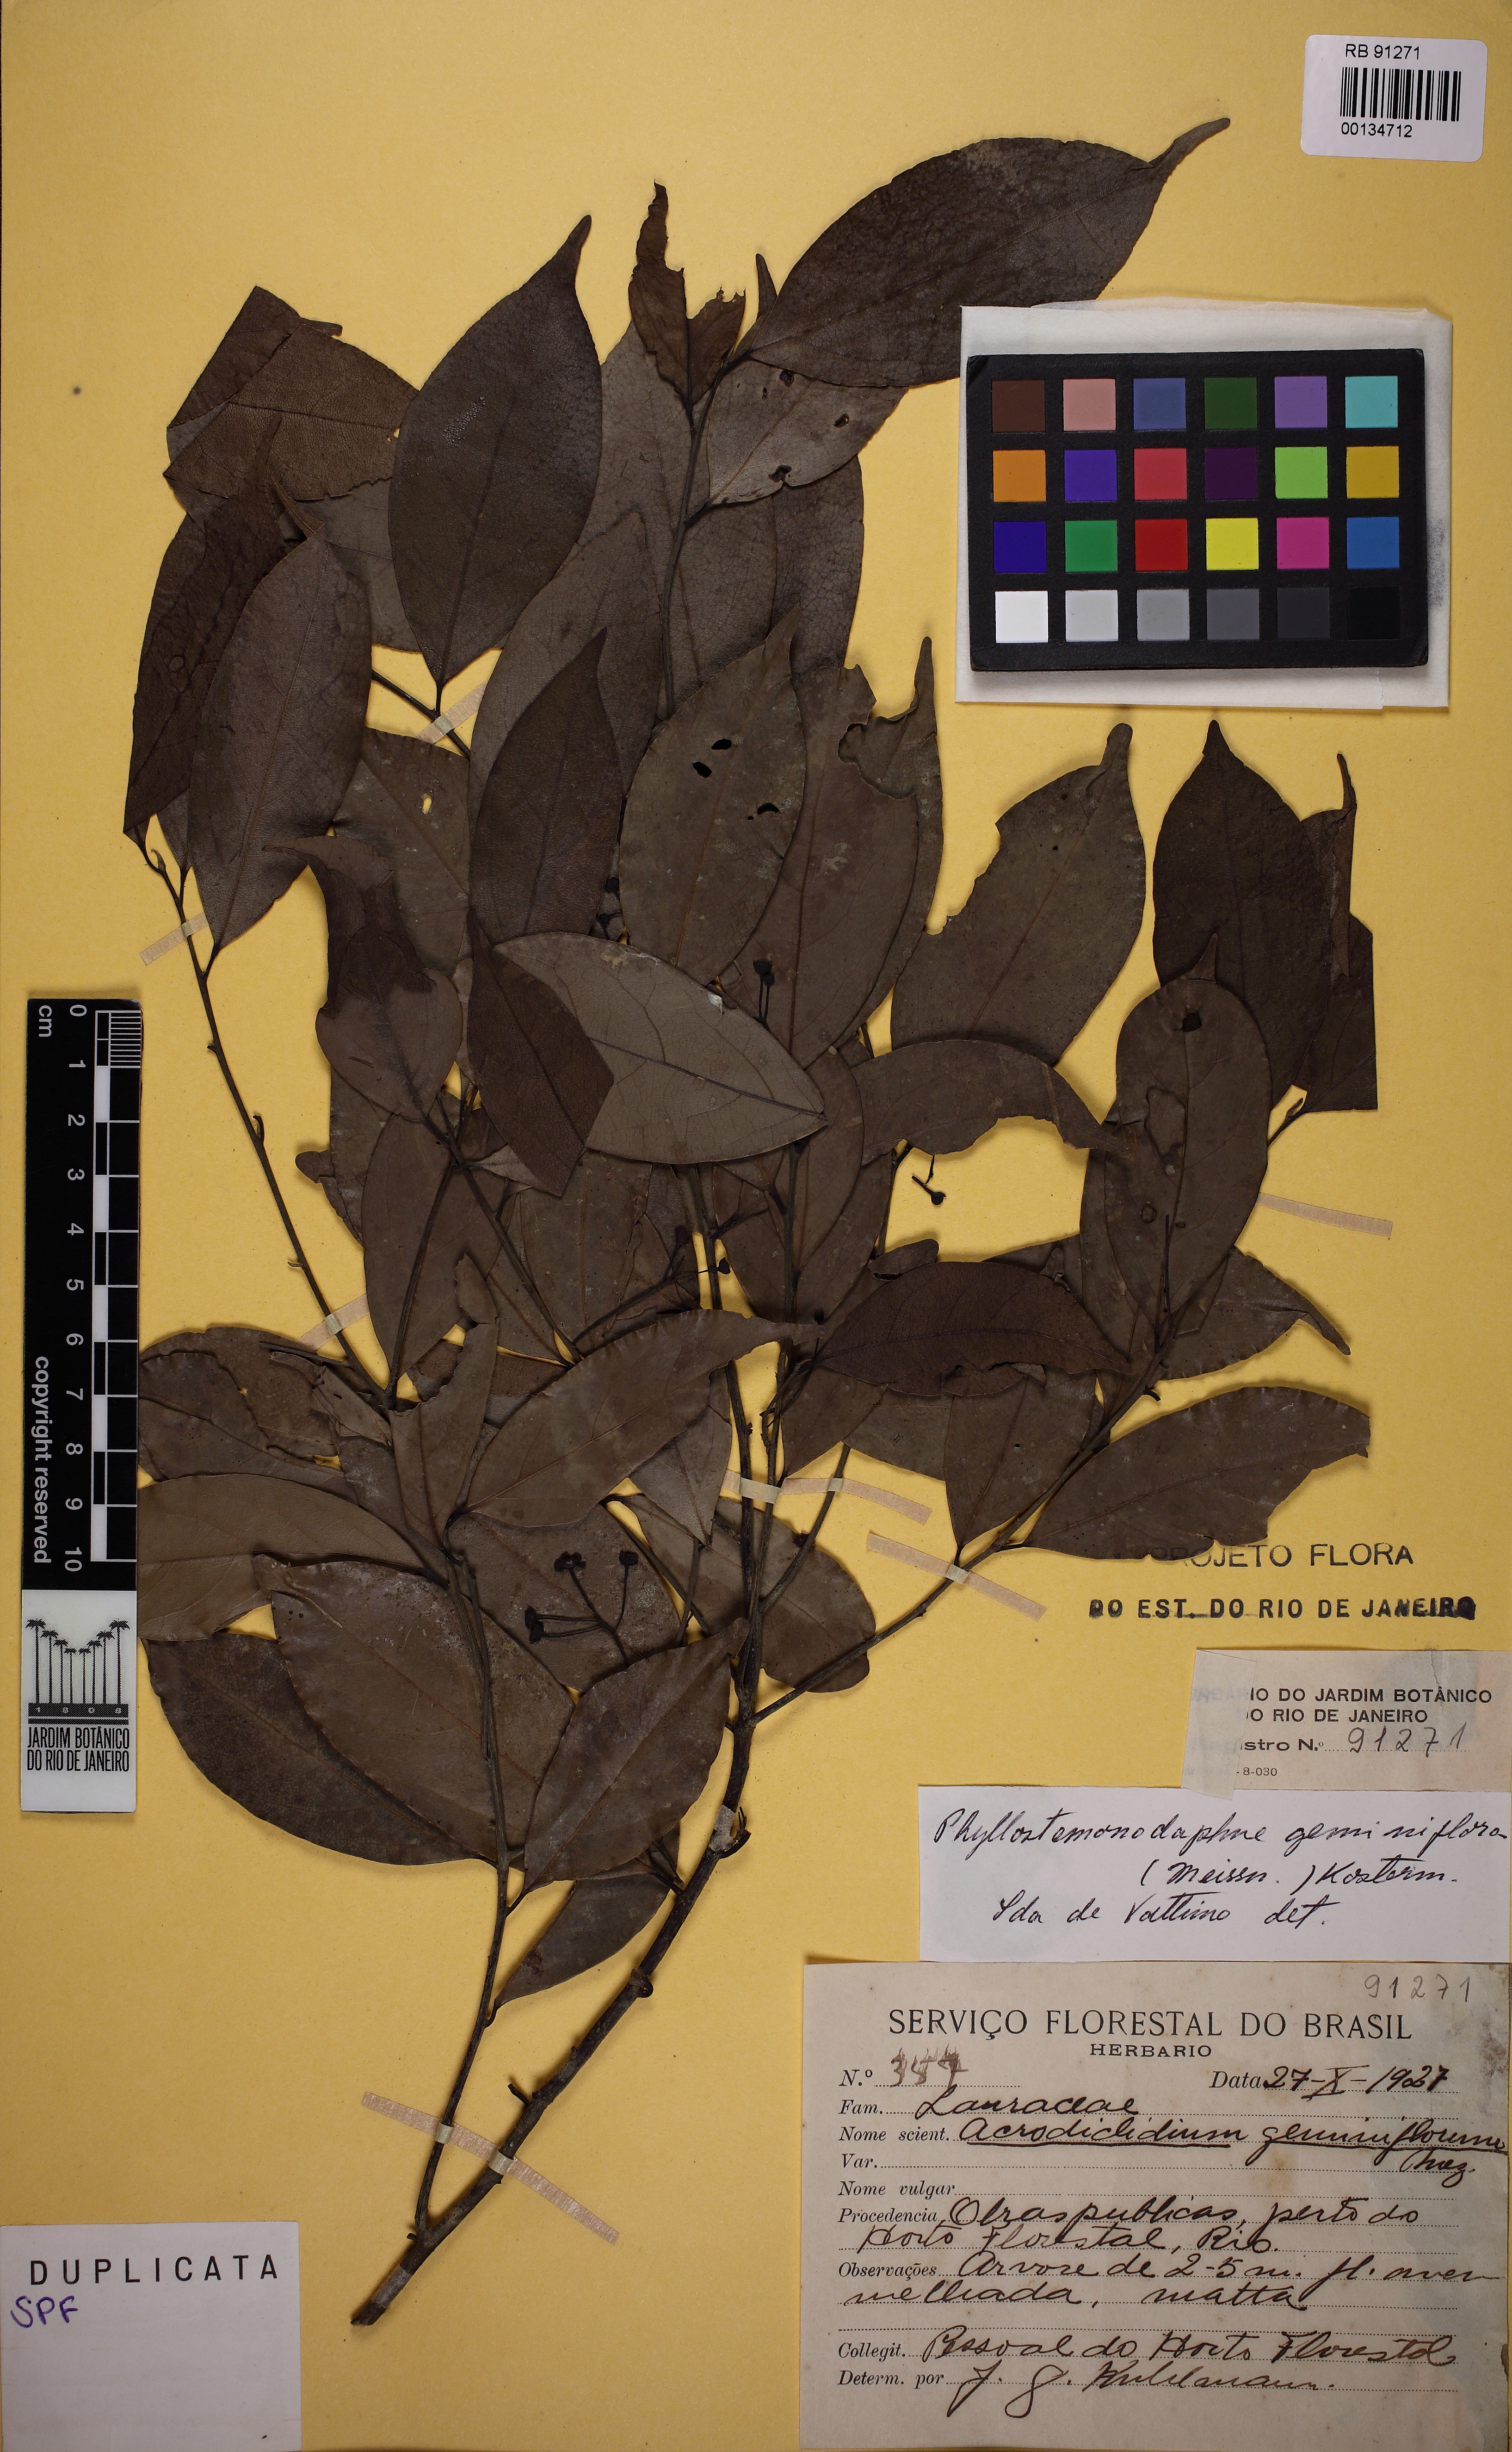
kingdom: Plantae
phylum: Tracheophyta
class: Magnoliopsida
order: Laurales
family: Lauraceae
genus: Phyllostemonodaphne
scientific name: Phyllostemonodaphne geminiflora
